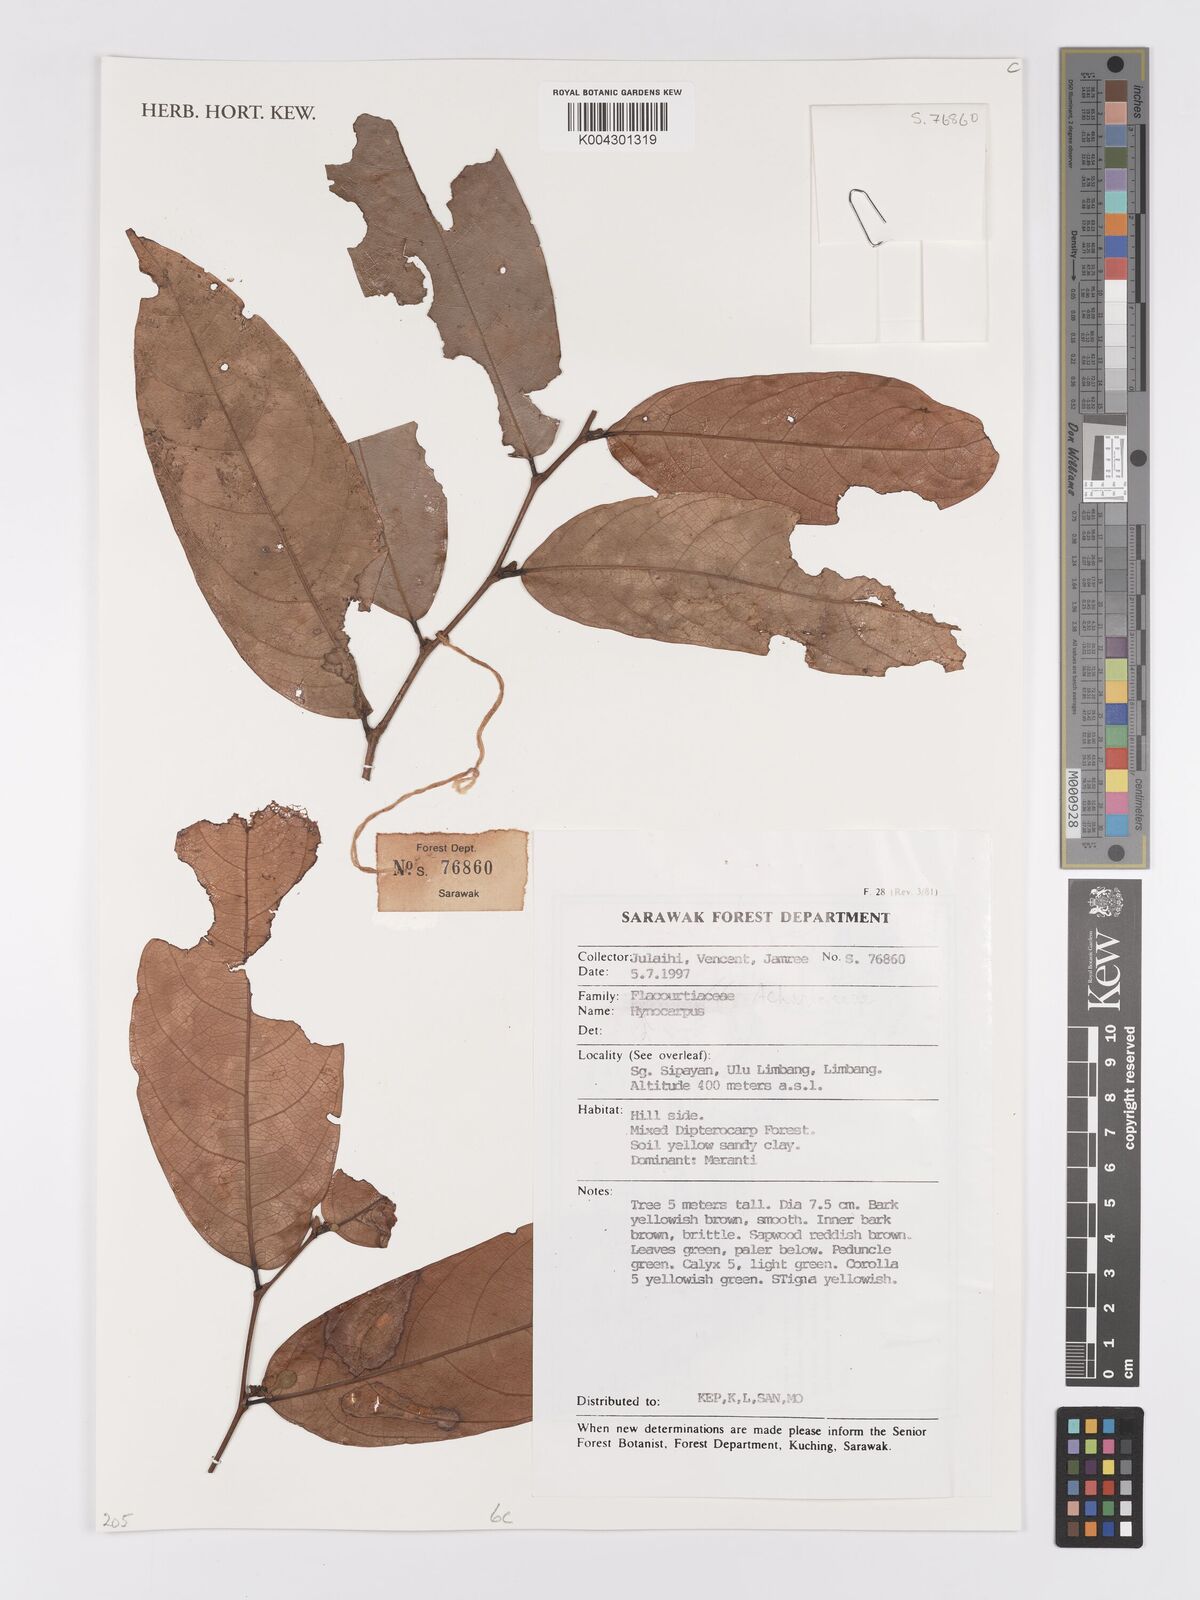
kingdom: Plantae
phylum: Tracheophyta
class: Magnoliopsida
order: Malpighiales
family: Achariaceae
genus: Hydnocarpus
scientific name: Hydnocarpus
